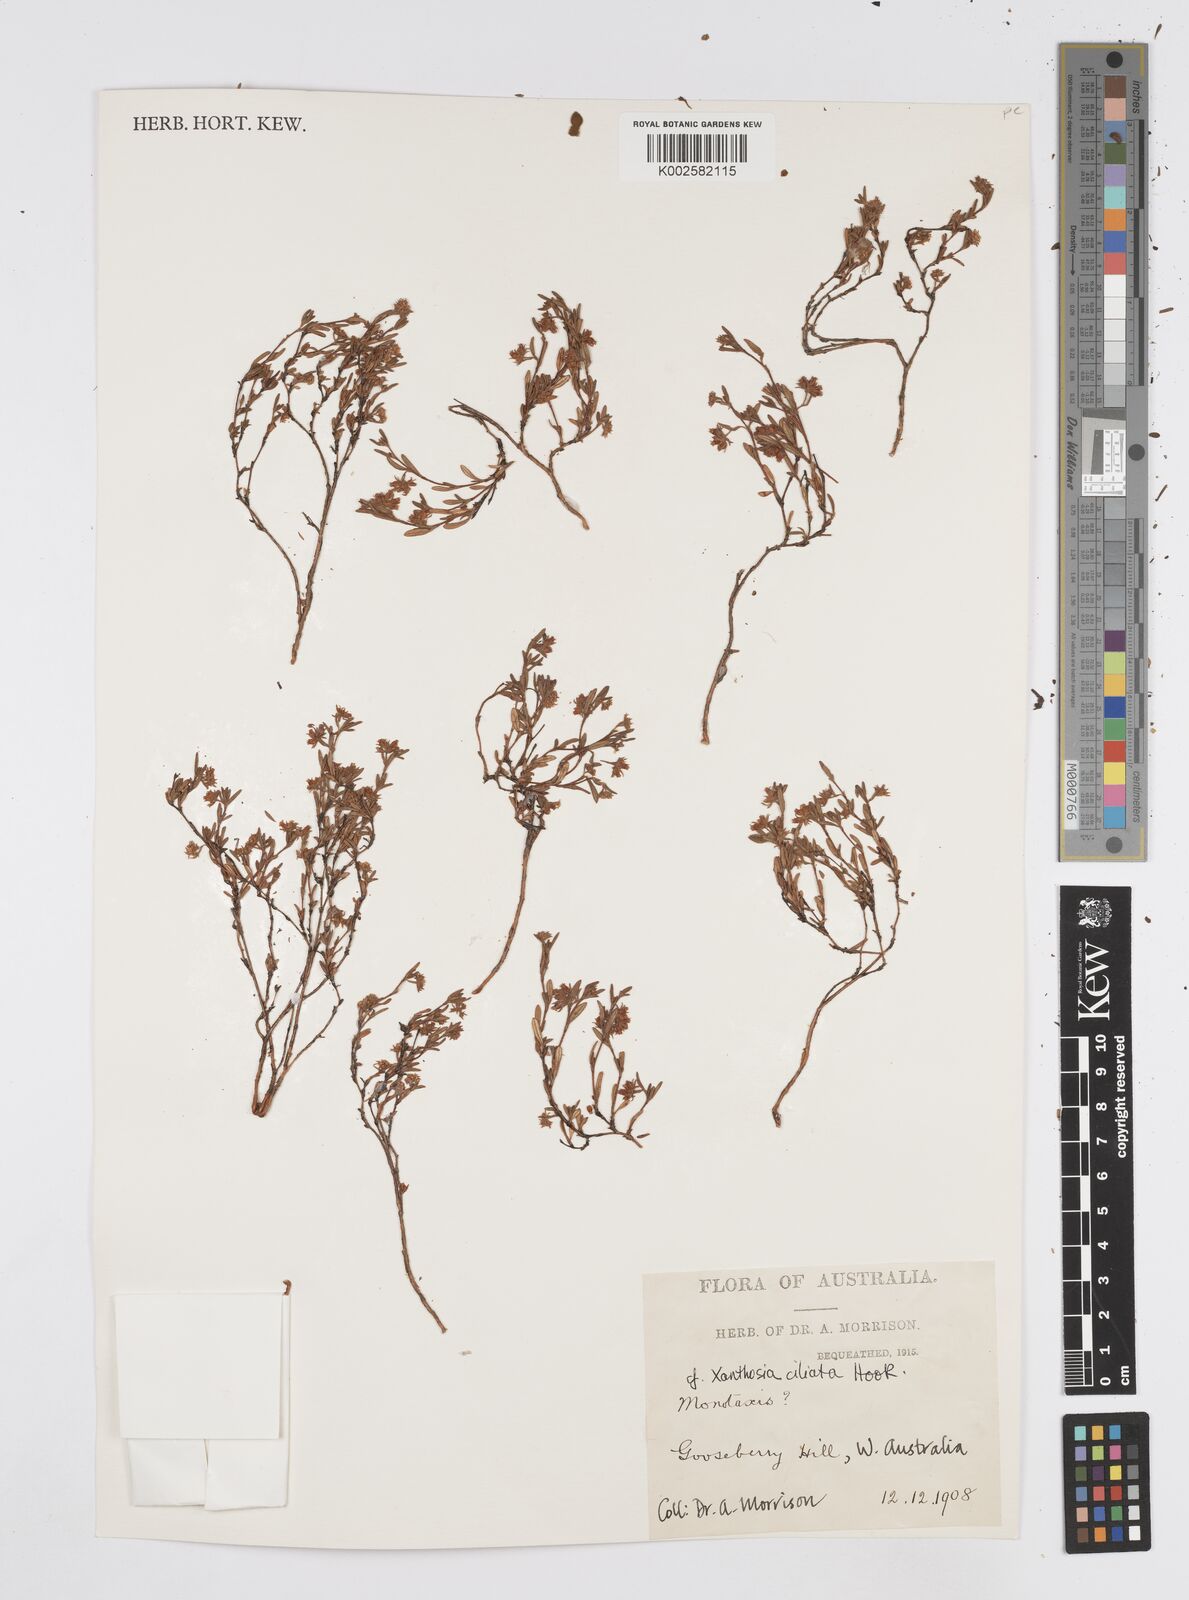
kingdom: Plantae
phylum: Tracheophyta
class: Magnoliopsida
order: Apiales
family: Apiaceae
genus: Xanthosia
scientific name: Xanthosia ciliata
